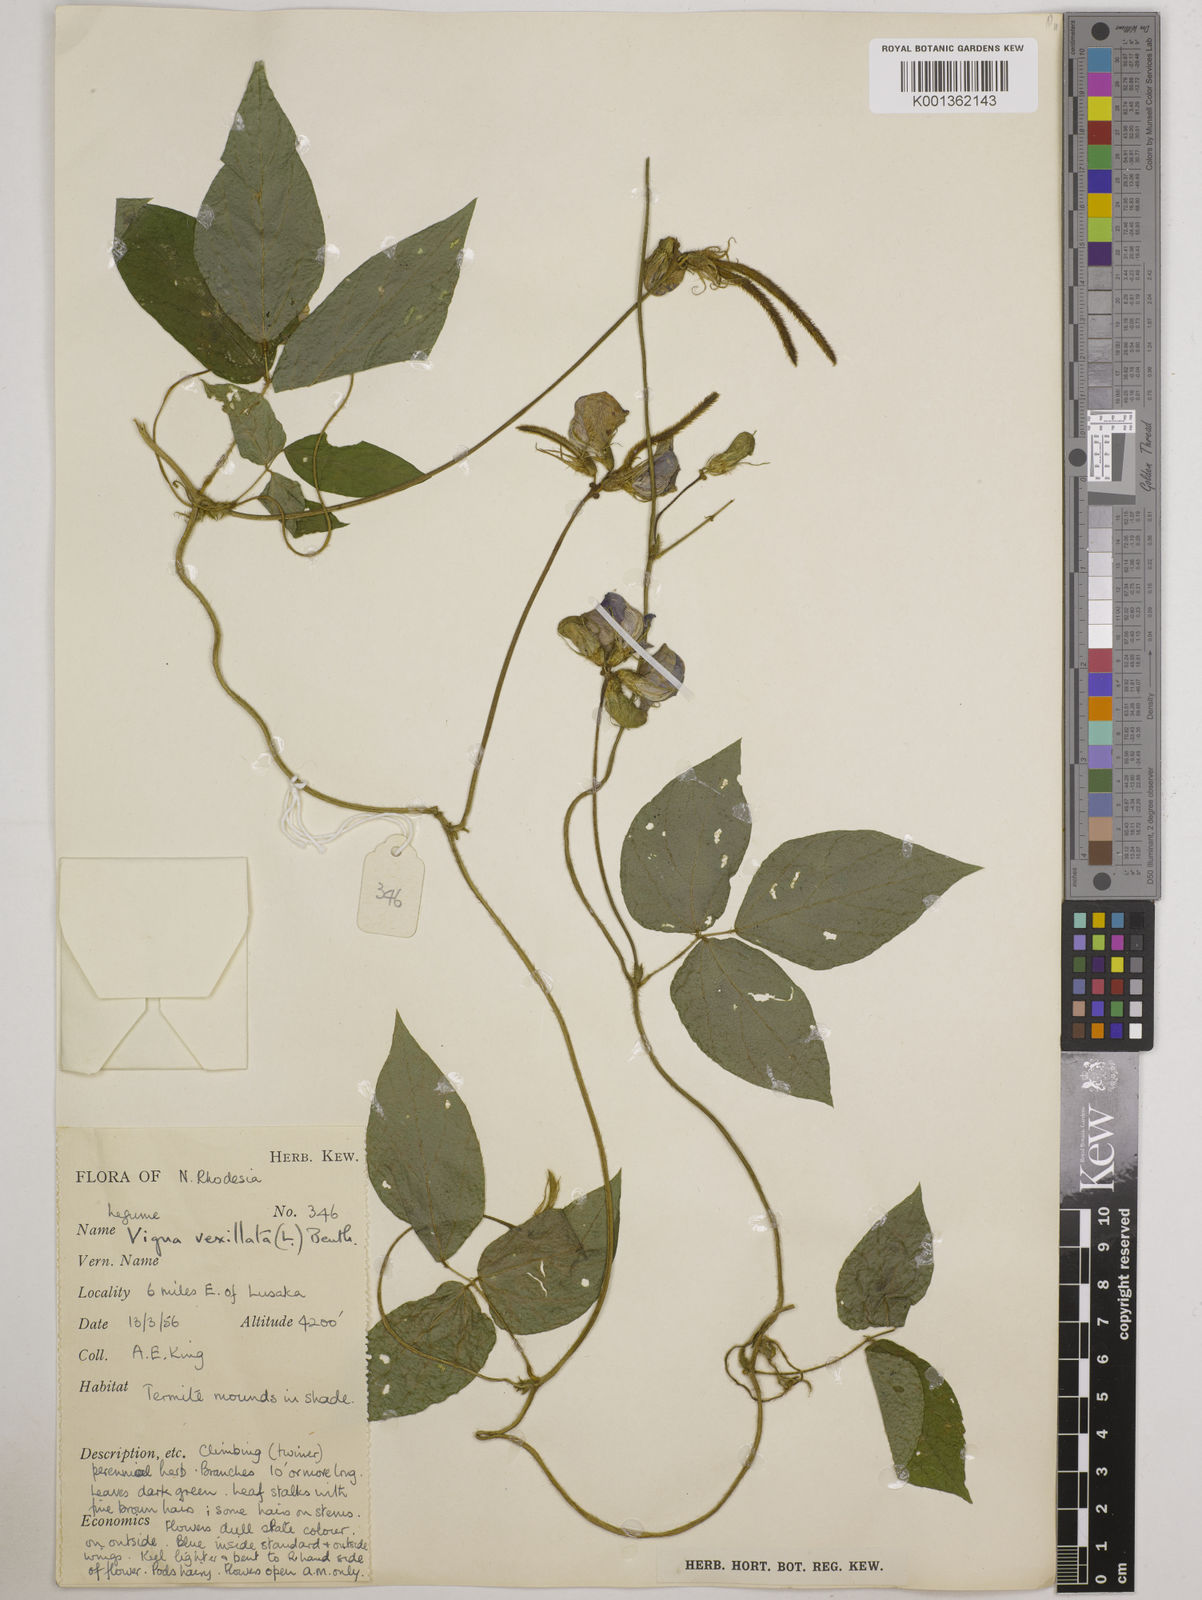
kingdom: Plantae
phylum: Tracheophyta
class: Magnoliopsida
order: Fabales
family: Fabaceae
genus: Vigna
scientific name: Vigna vexillata
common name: Zombi pea
